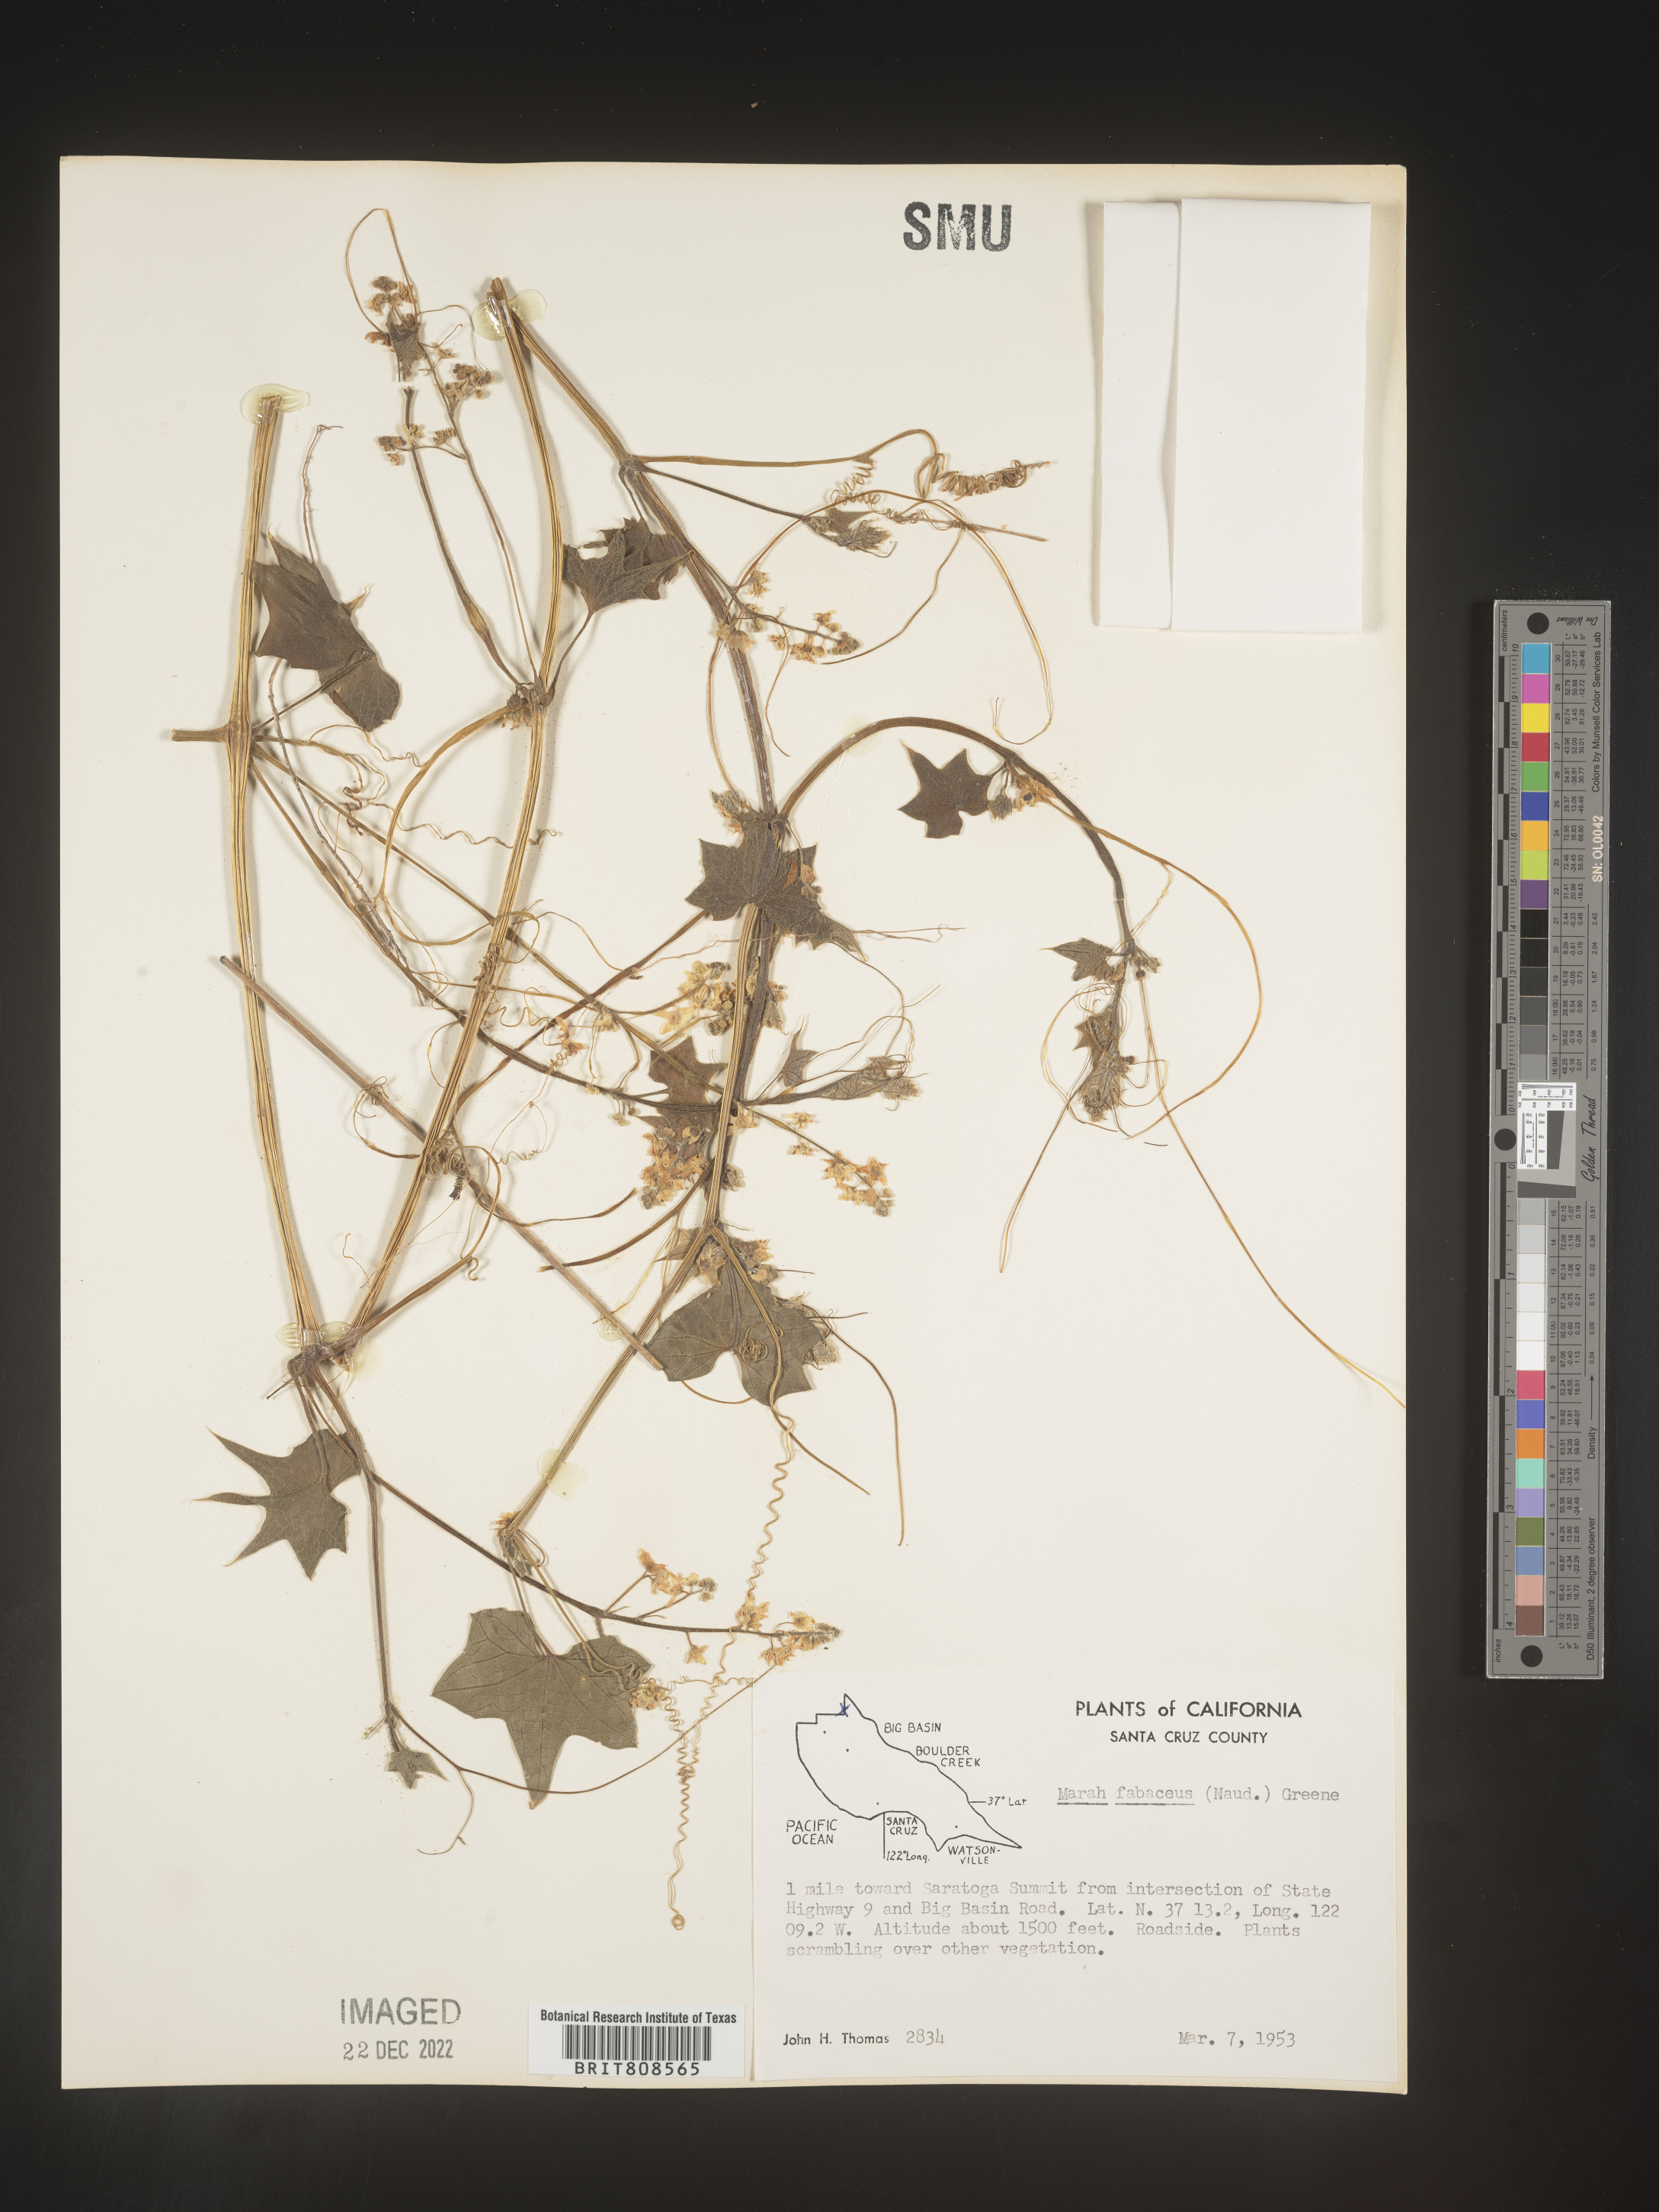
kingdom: Plantae
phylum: Tracheophyta
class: Magnoliopsida
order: Cucurbitales
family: Cucurbitaceae
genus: Marah
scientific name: Marah
